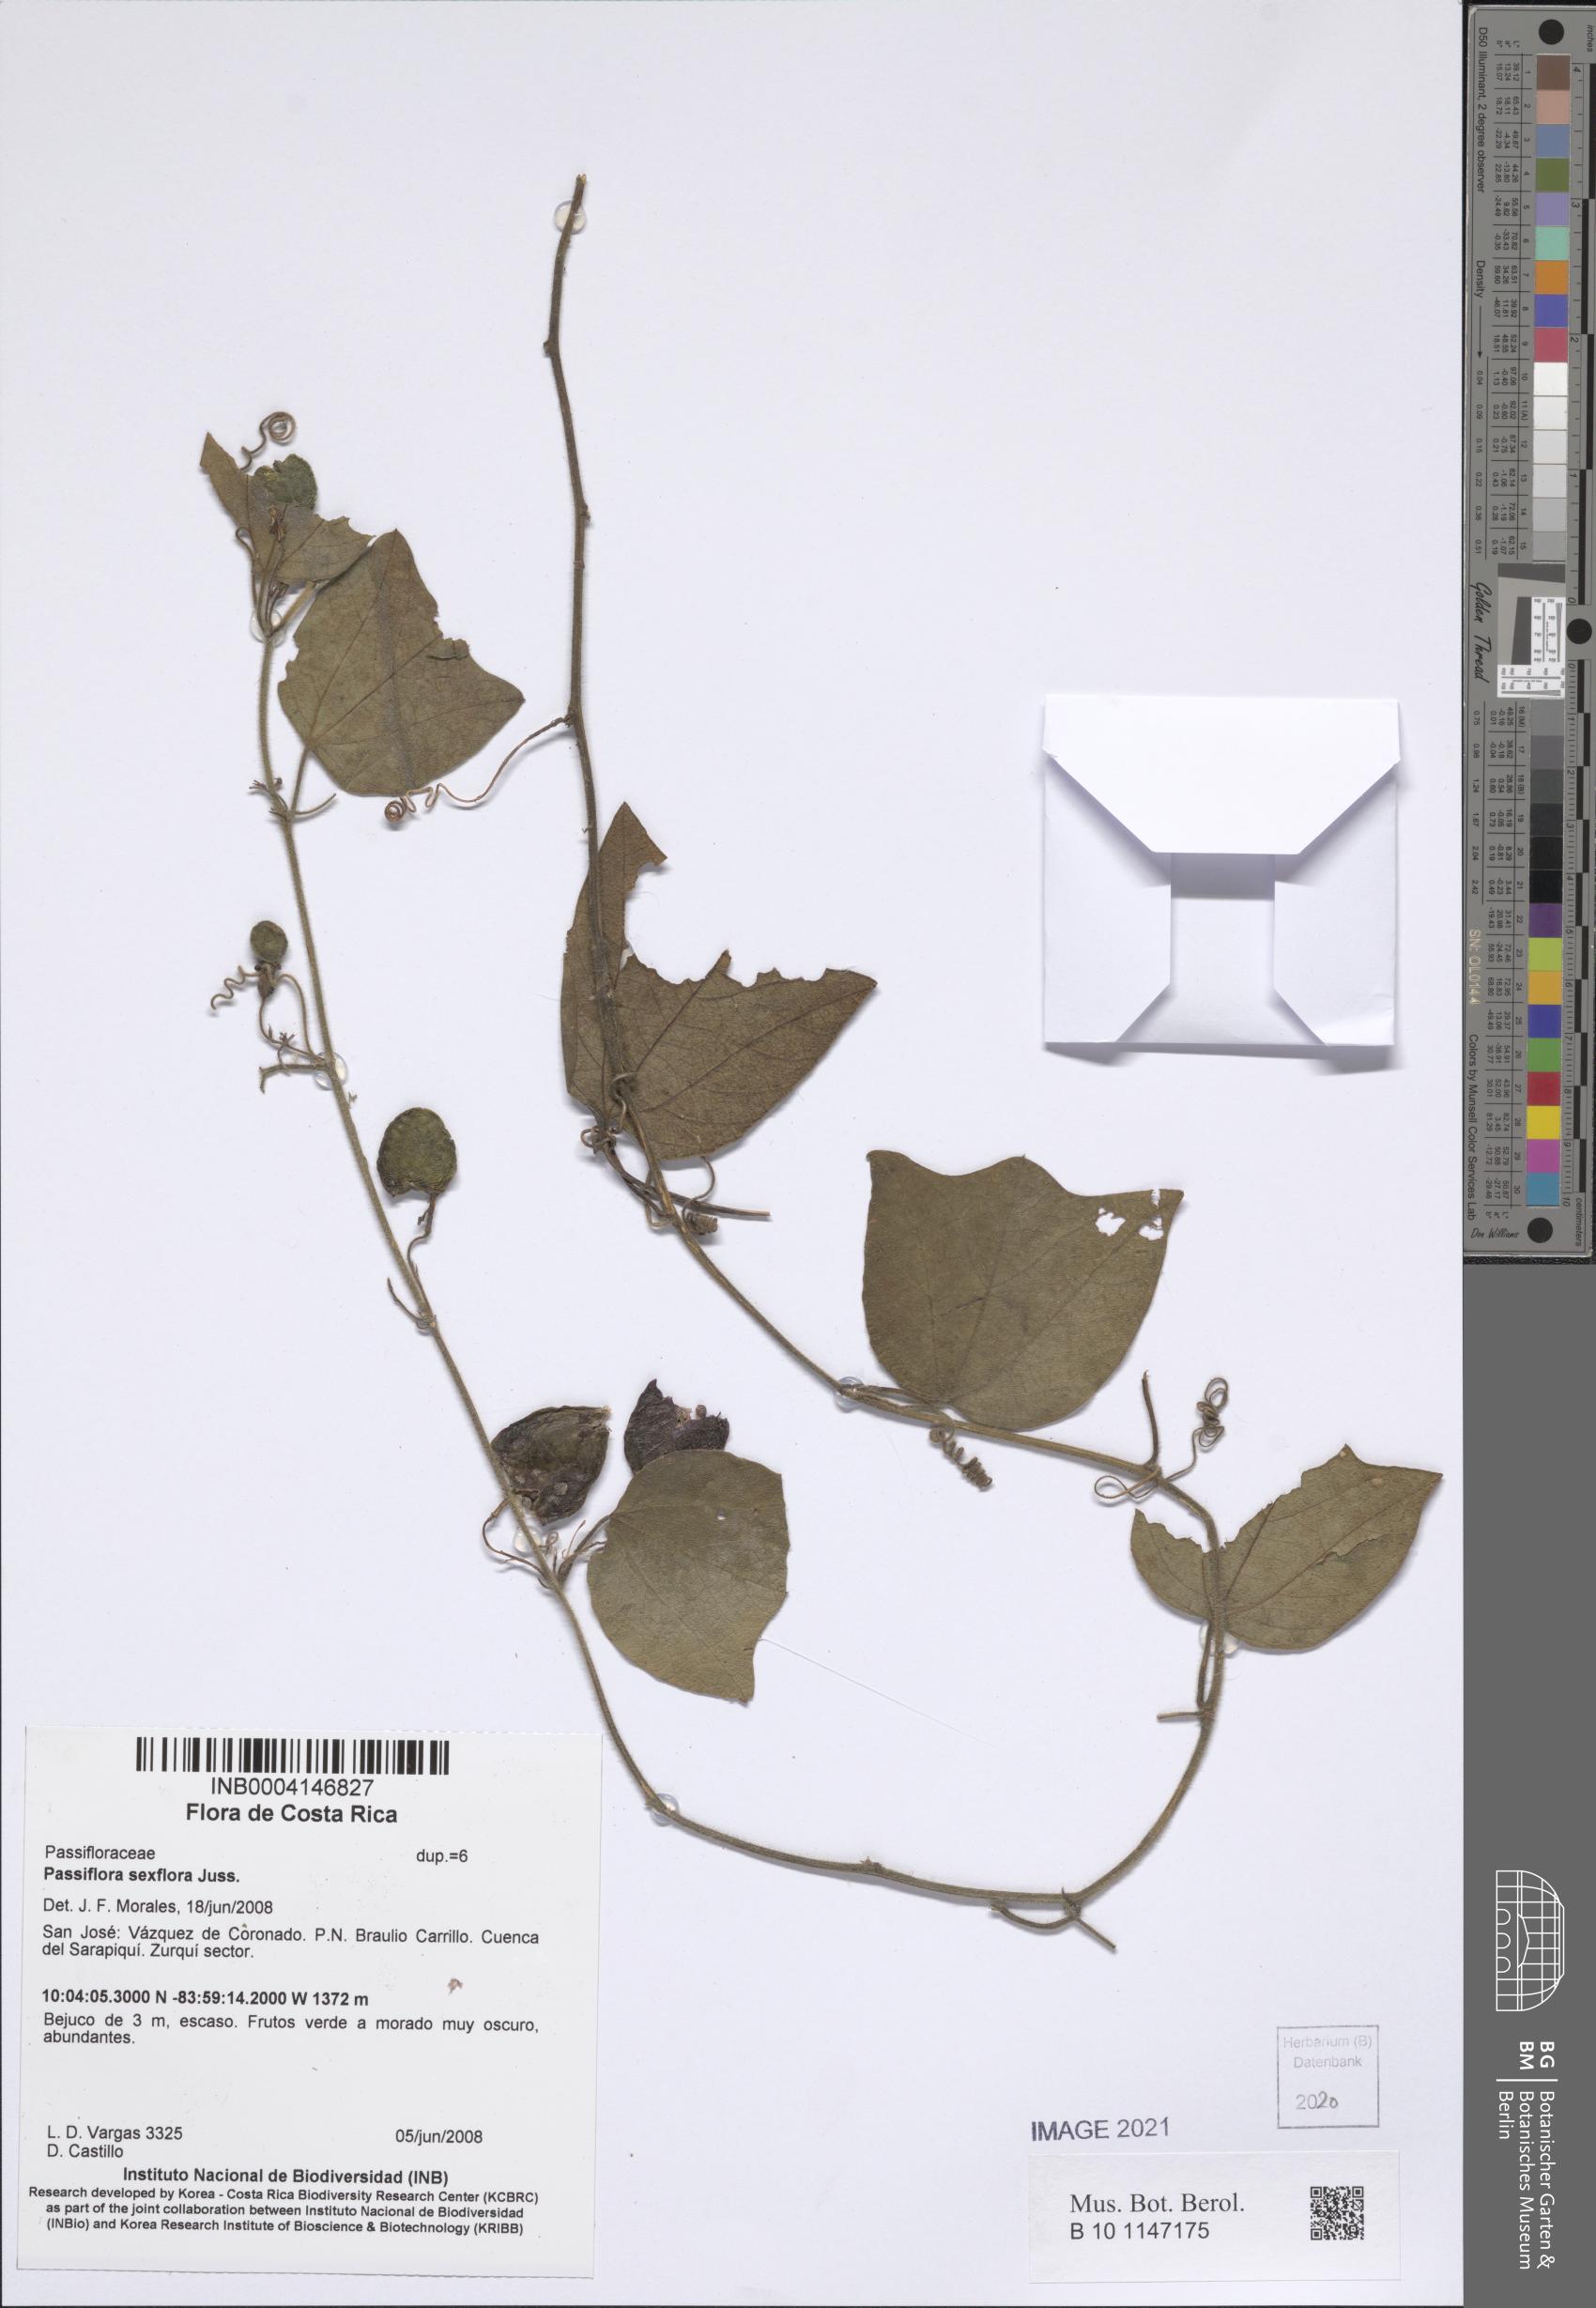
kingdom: Plantae
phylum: Tracheophyta
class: Magnoliopsida
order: Malpighiales
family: Passifloraceae
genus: Passiflora
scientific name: Passiflora sexflora
